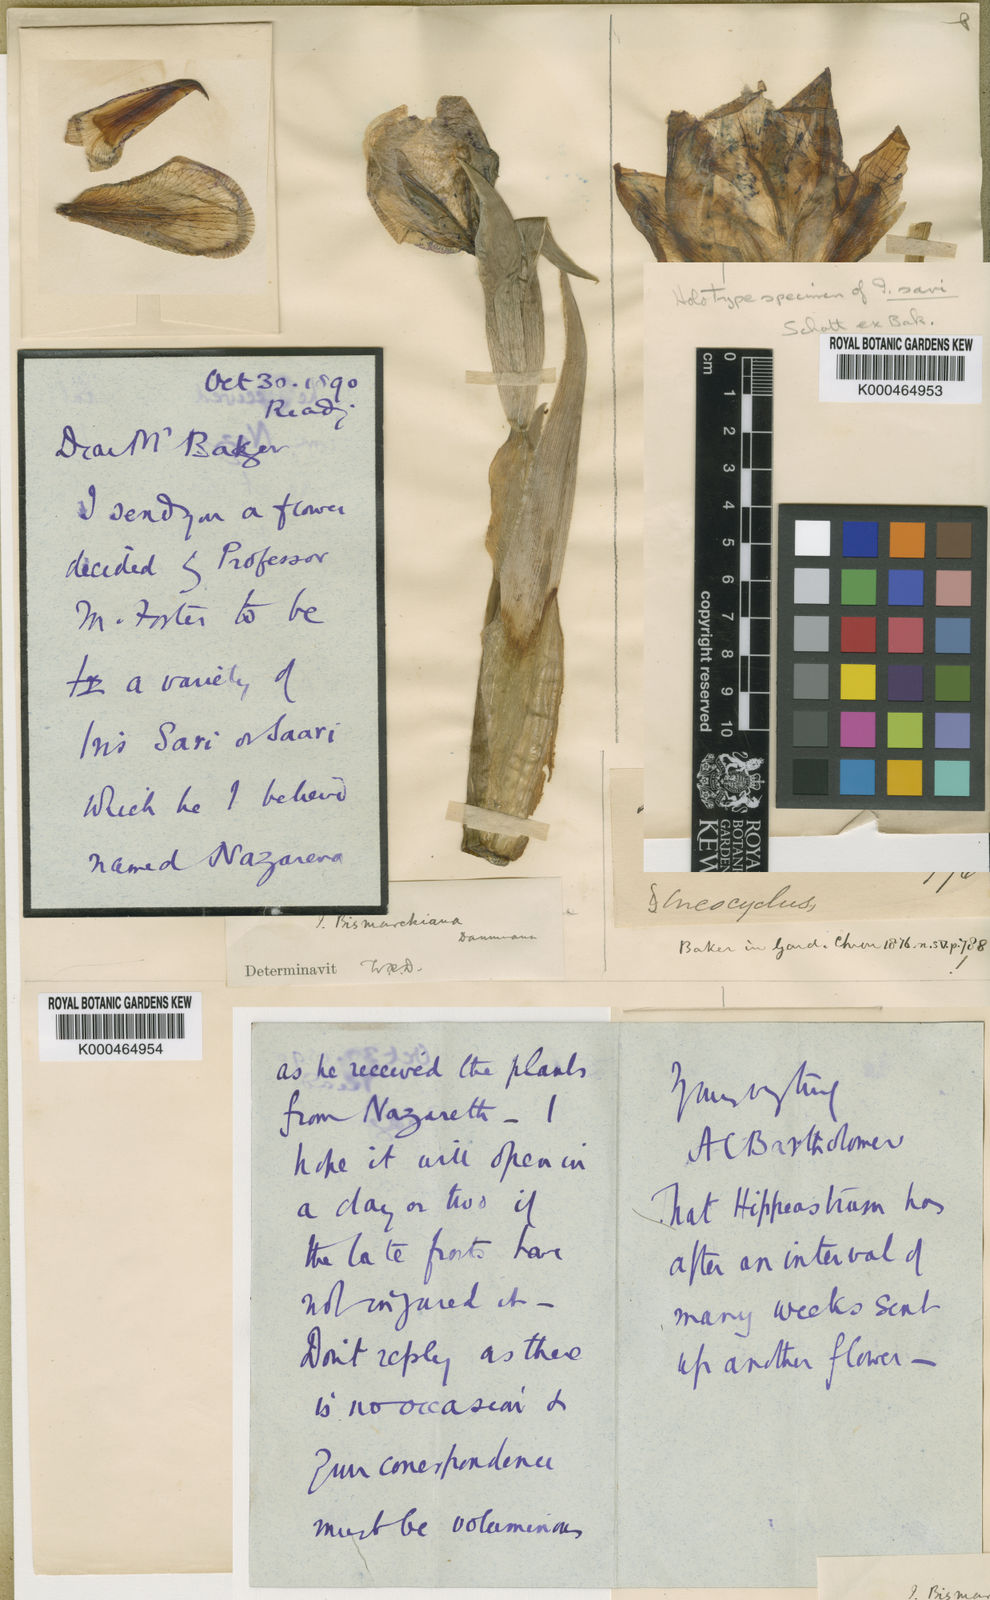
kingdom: Plantae
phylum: Tracheophyta
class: Liliopsida
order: Asparagales
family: Iridaceae
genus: Iris
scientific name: Iris sari
